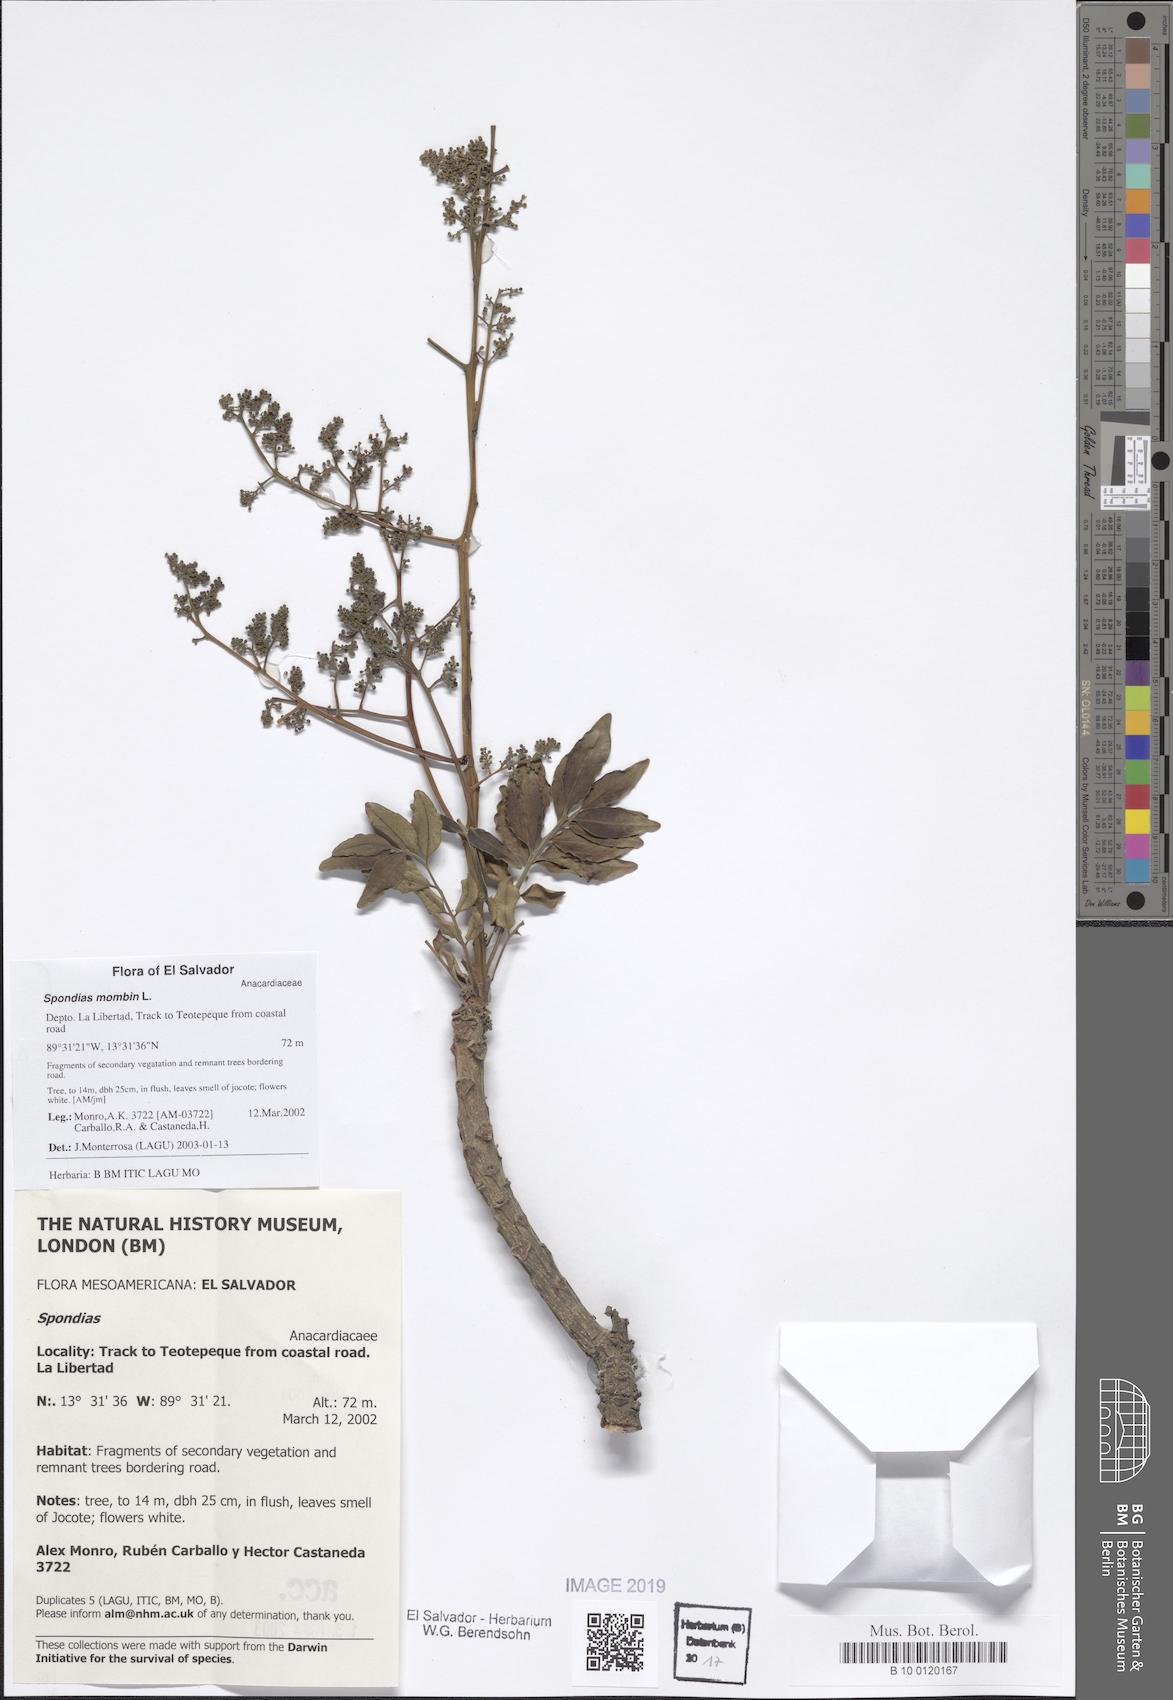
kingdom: Plantae
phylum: Tracheophyta
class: Magnoliopsida
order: Sapindales
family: Anacardiaceae
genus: Spondias
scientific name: Spondias mombin
